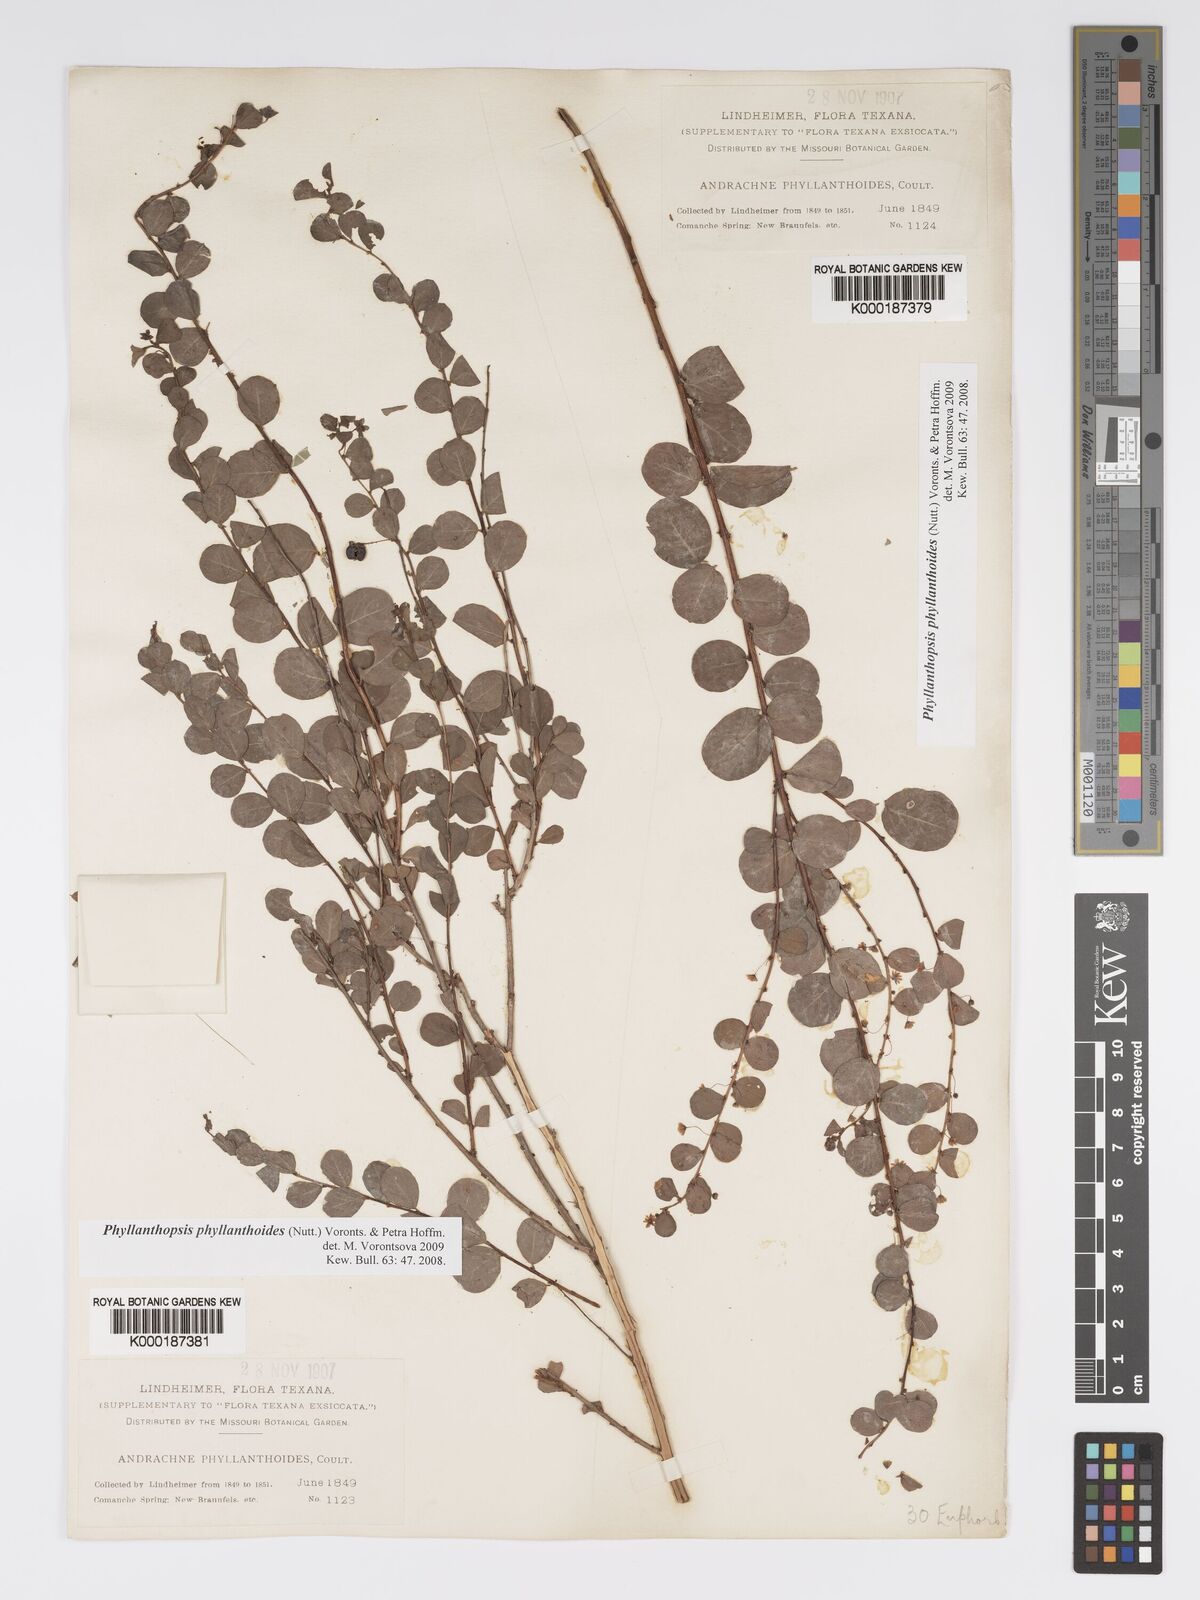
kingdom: Plantae
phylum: Tracheophyta
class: Magnoliopsida
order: Malpighiales
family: Phyllanthaceae
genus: Andrachne
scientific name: Andrachne
